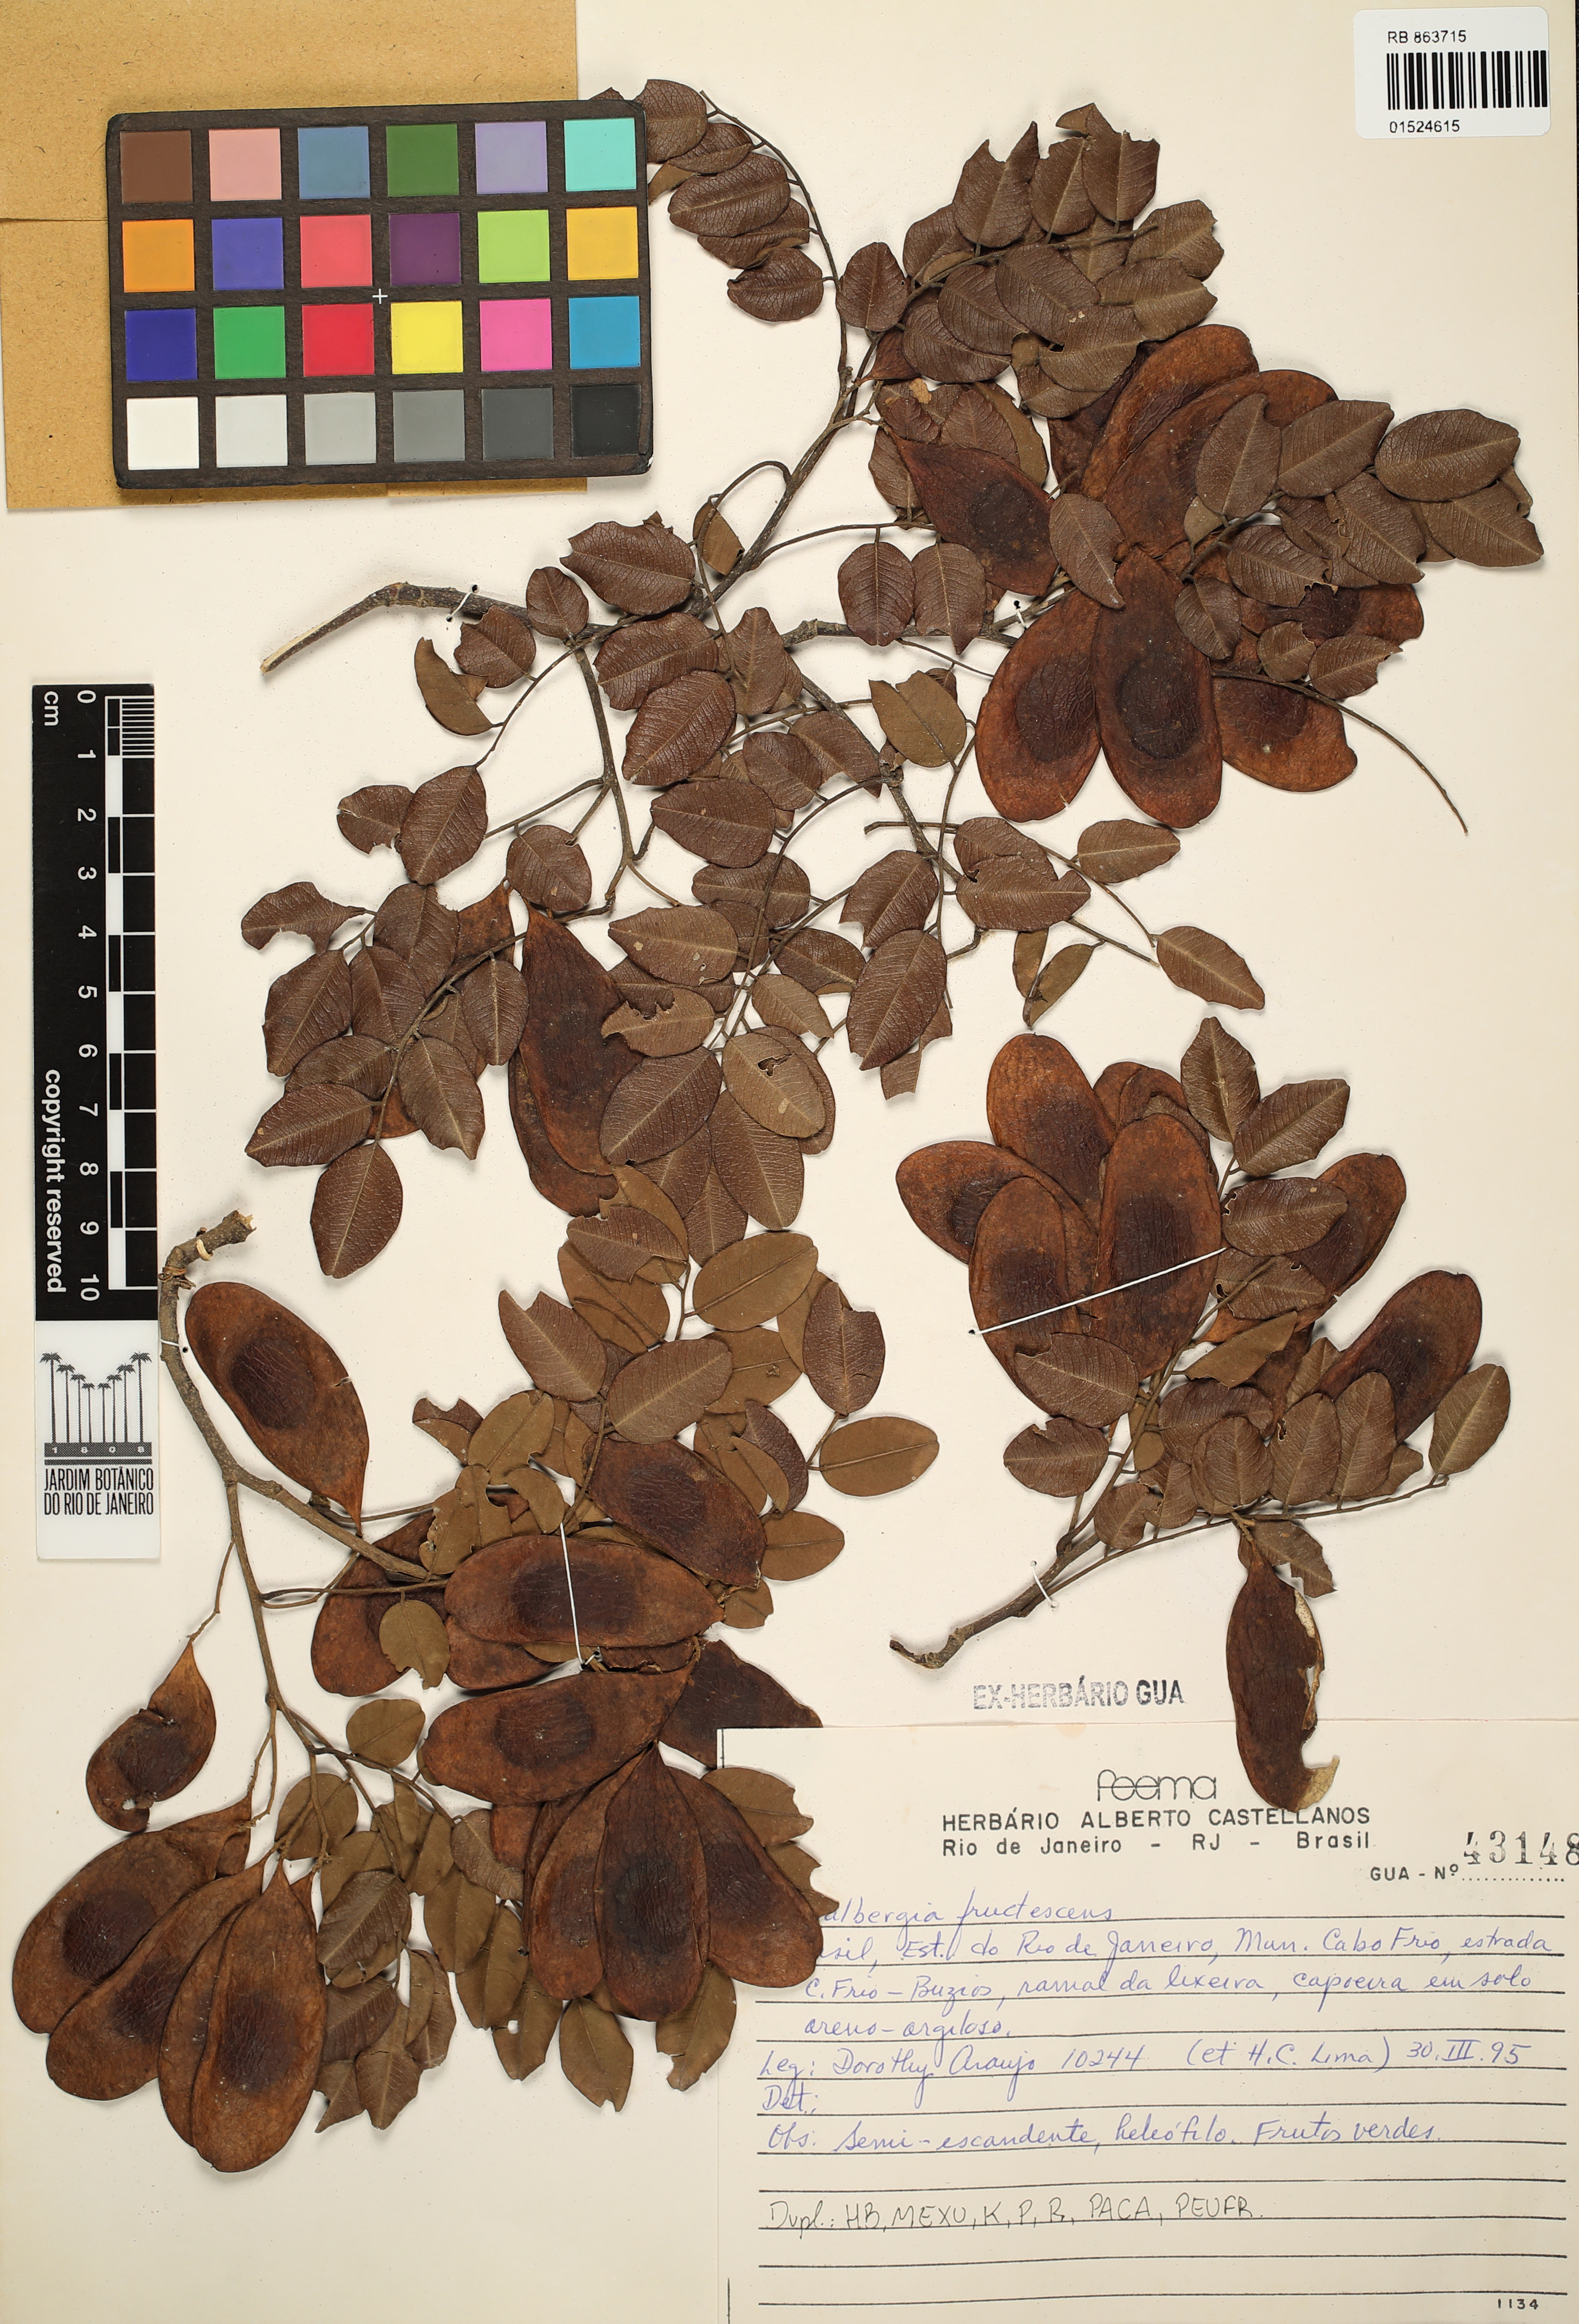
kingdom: Plantae
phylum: Tracheophyta
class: Magnoliopsida
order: Fabales
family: Fabaceae
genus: Dalbergia
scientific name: Dalbergia frutescens
